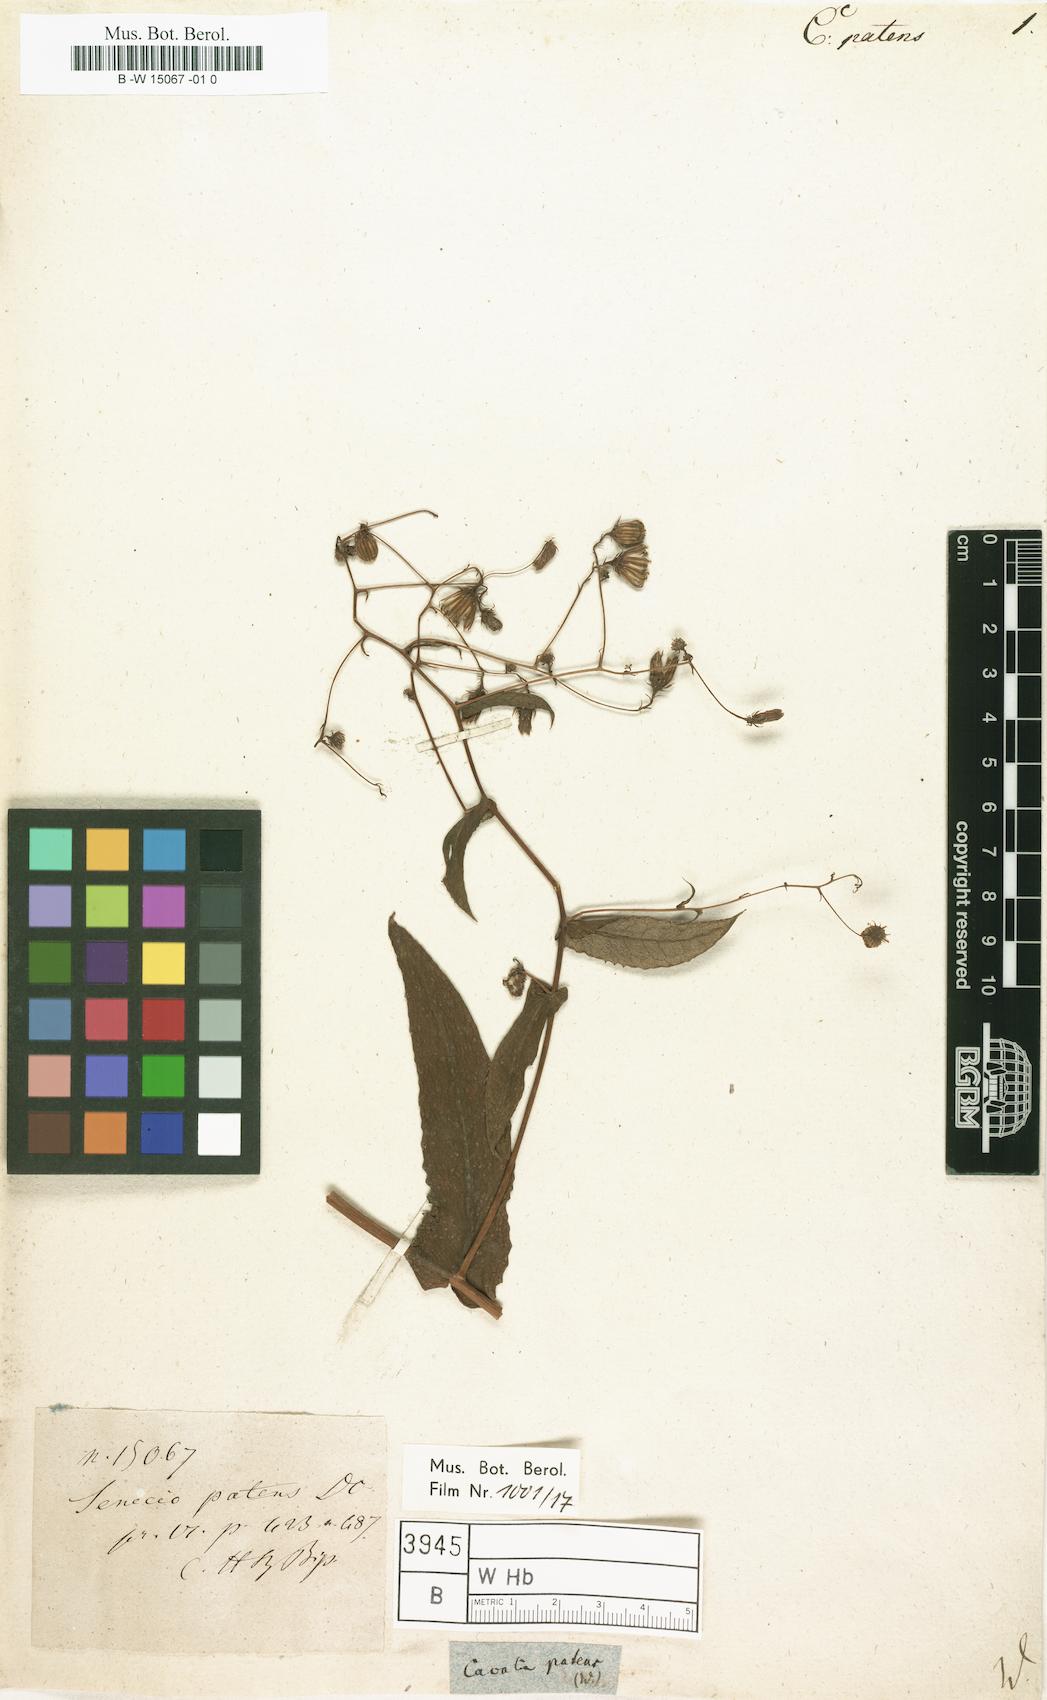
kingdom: Plantae
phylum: Tracheophyta
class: Magnoliopsida
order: Asterales
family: Asteraceae
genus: Aetheolaena
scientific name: Aetheolaena patens
